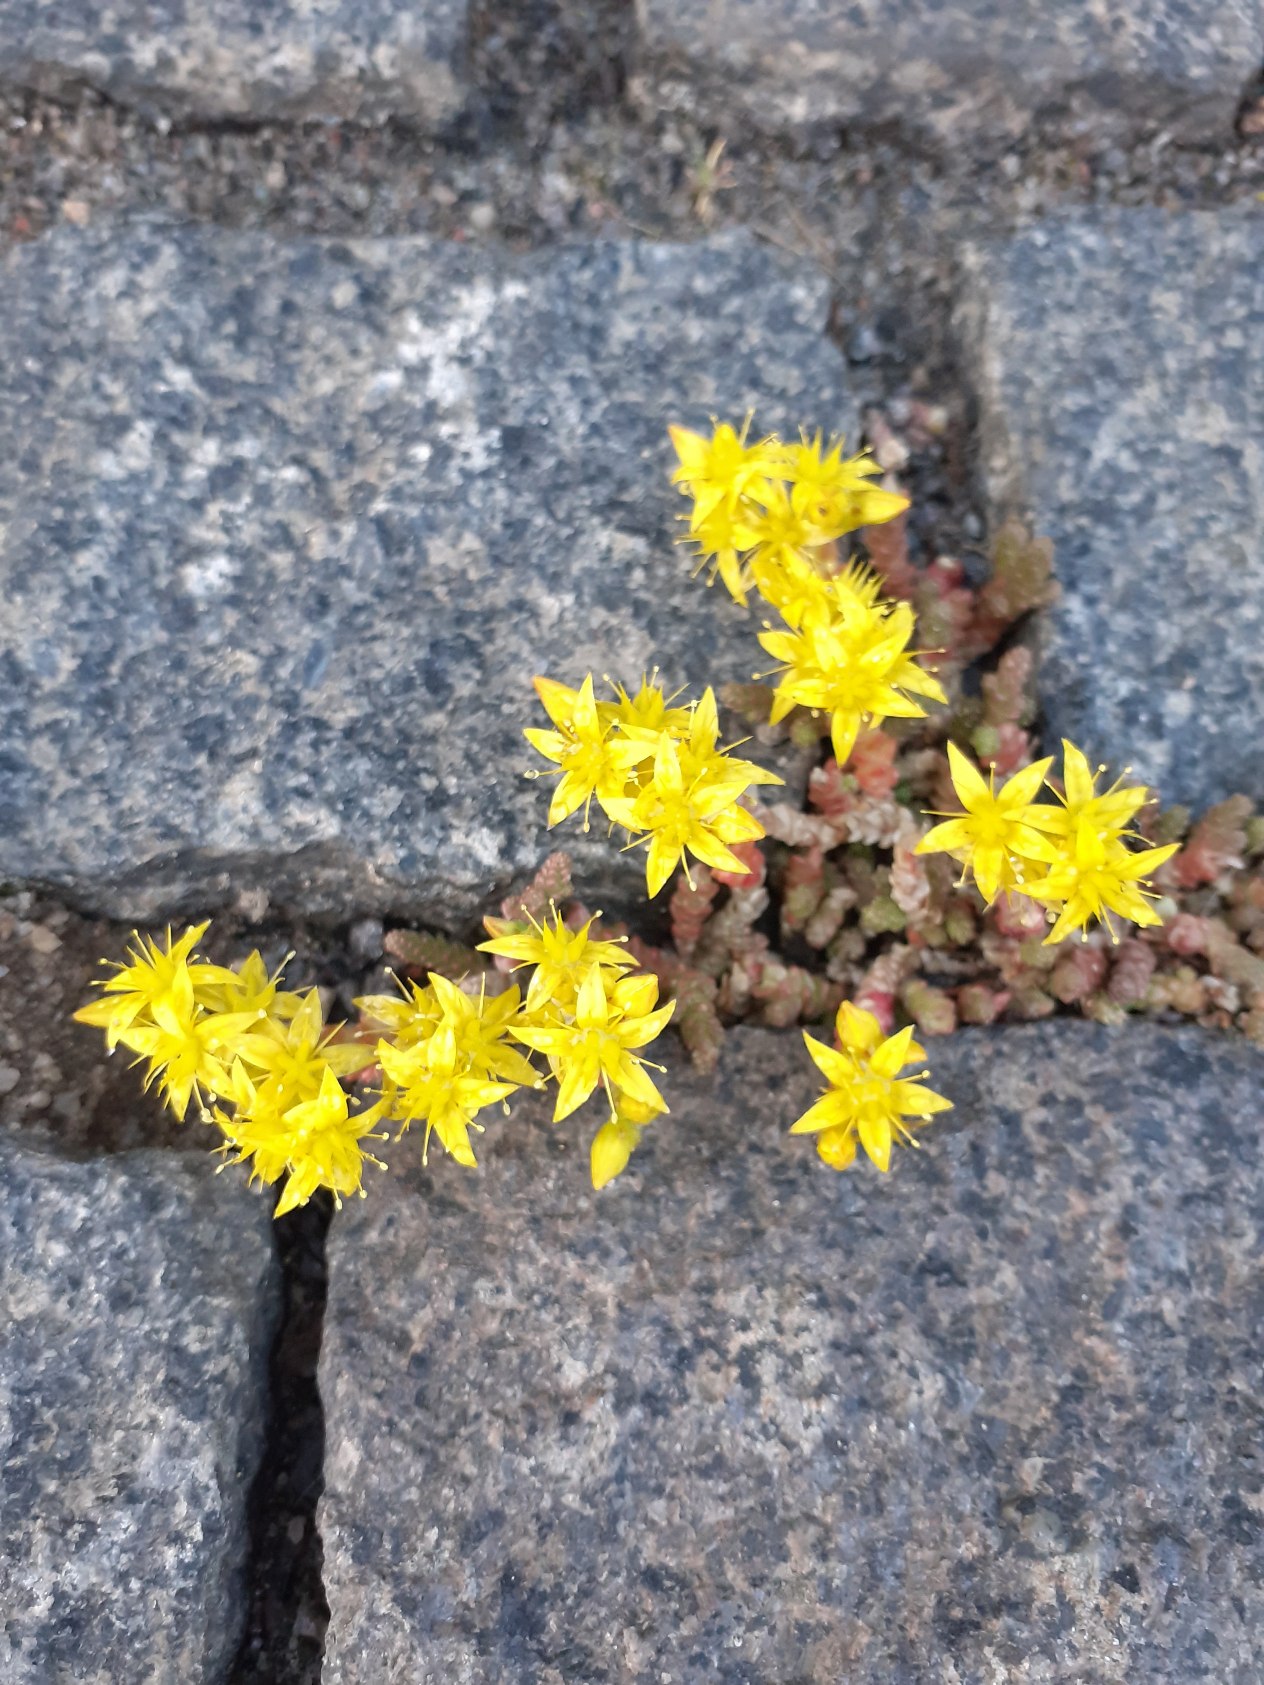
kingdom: Plantae
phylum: Tracheophyta
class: Magnoliopsida
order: Saxifragales
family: Crassulaceae
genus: Sedum
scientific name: Sedum acre
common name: Bidende stenurt
